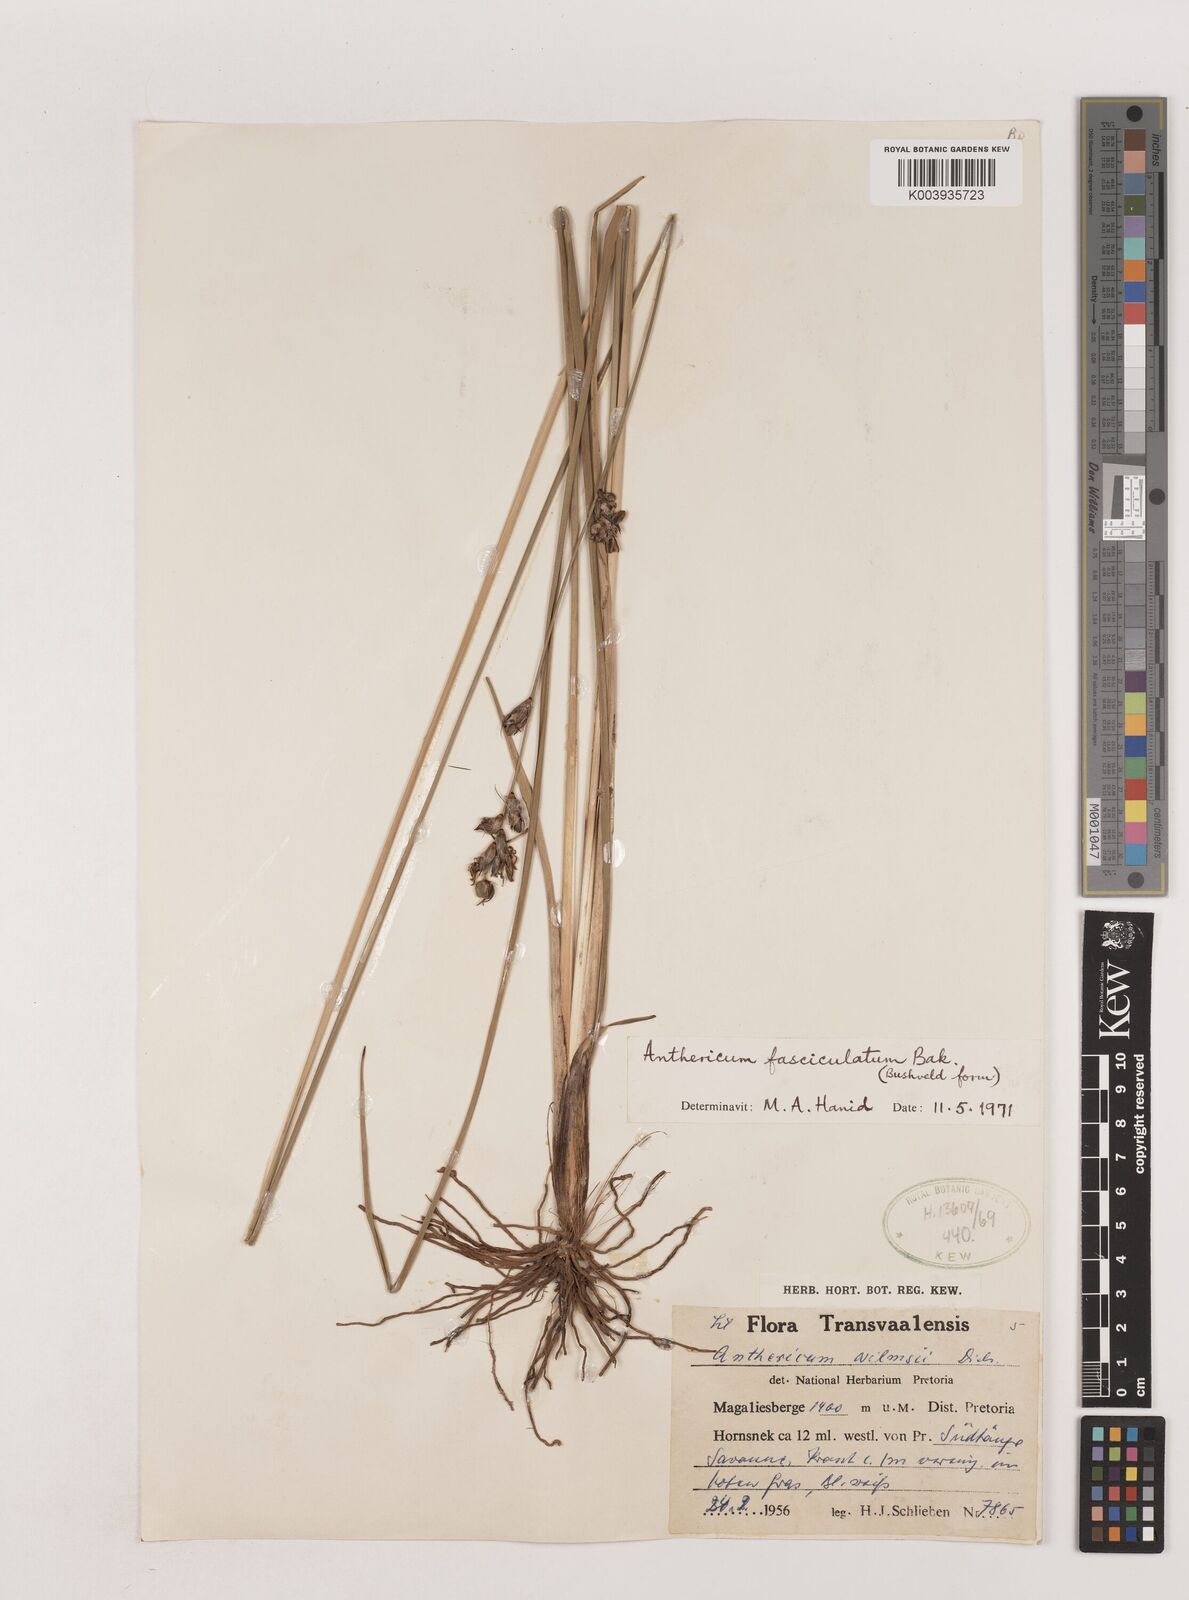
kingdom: Plantae
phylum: Tracheophyta
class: Liliopsida
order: Asparagales
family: Asparagaceae
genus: Chlorophytum
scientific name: Chlorophytum fasciculatum
